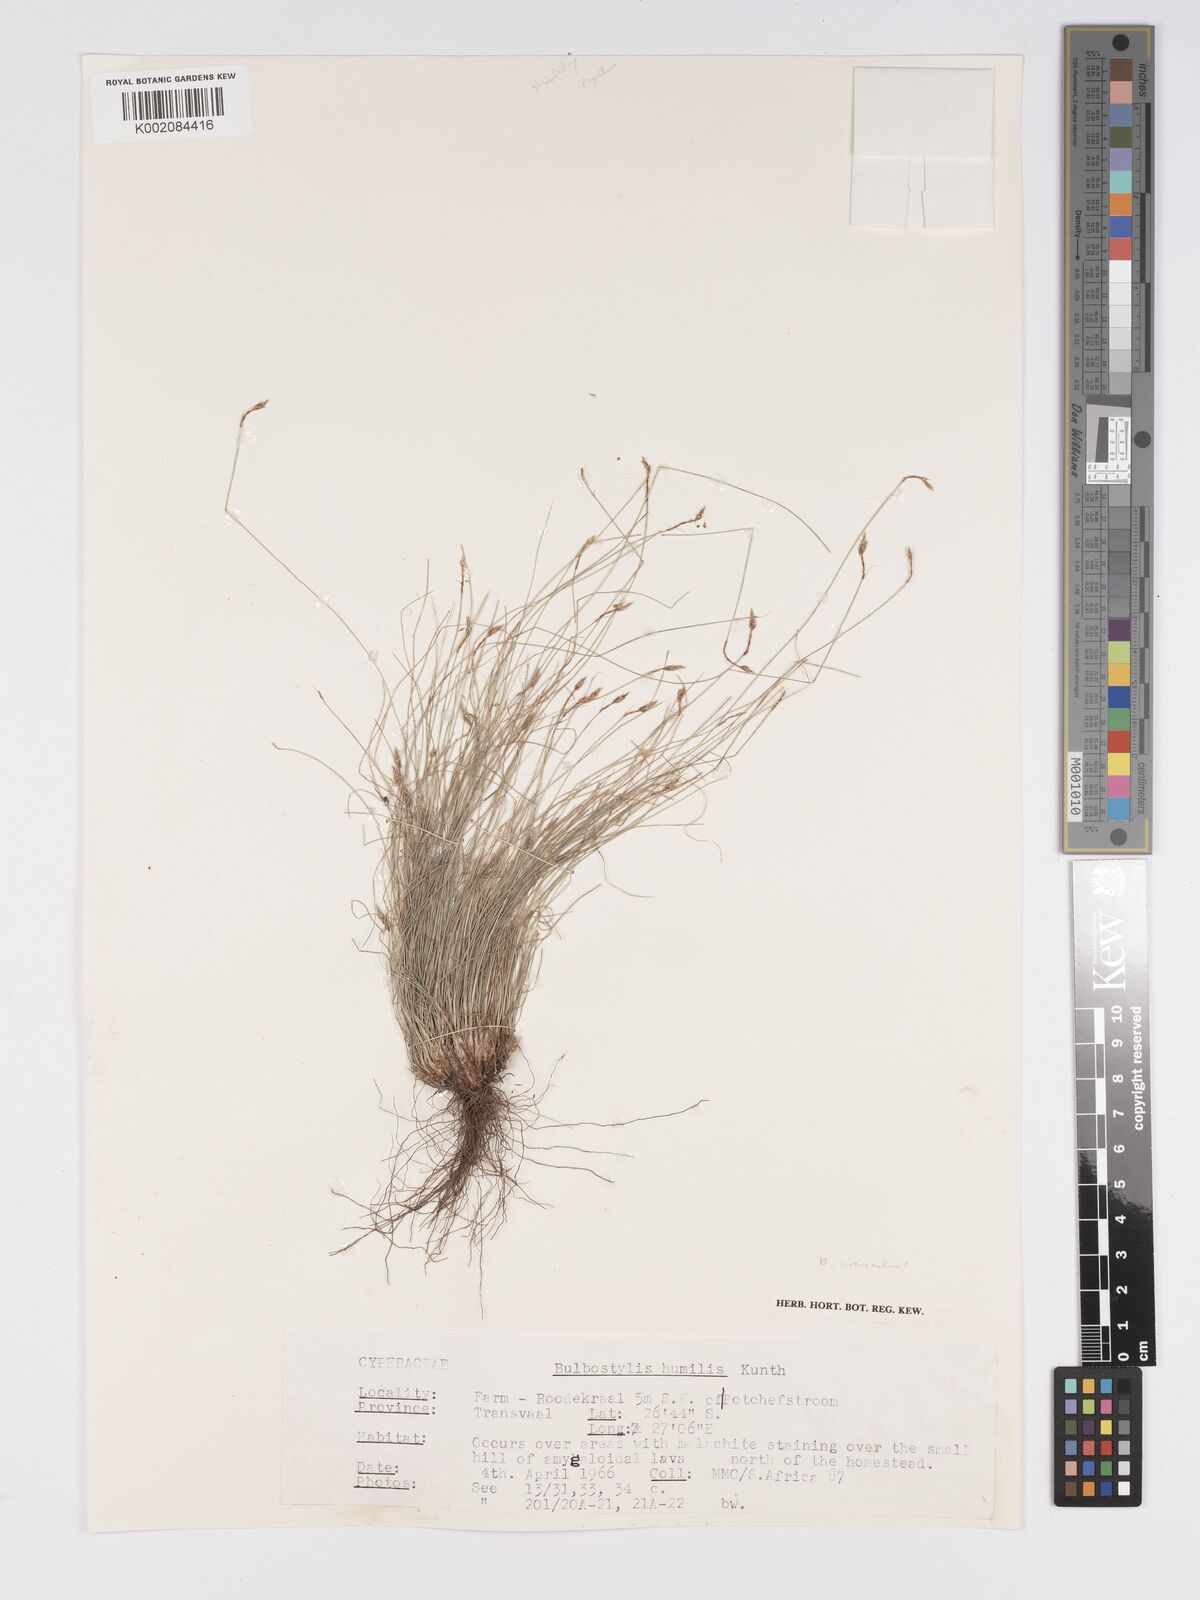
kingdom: Plantae
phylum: Tracheophyta
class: Liliopsida
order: Poales
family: Cyperaceae
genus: Bulbostylis
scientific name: Bulbostylis humilis
